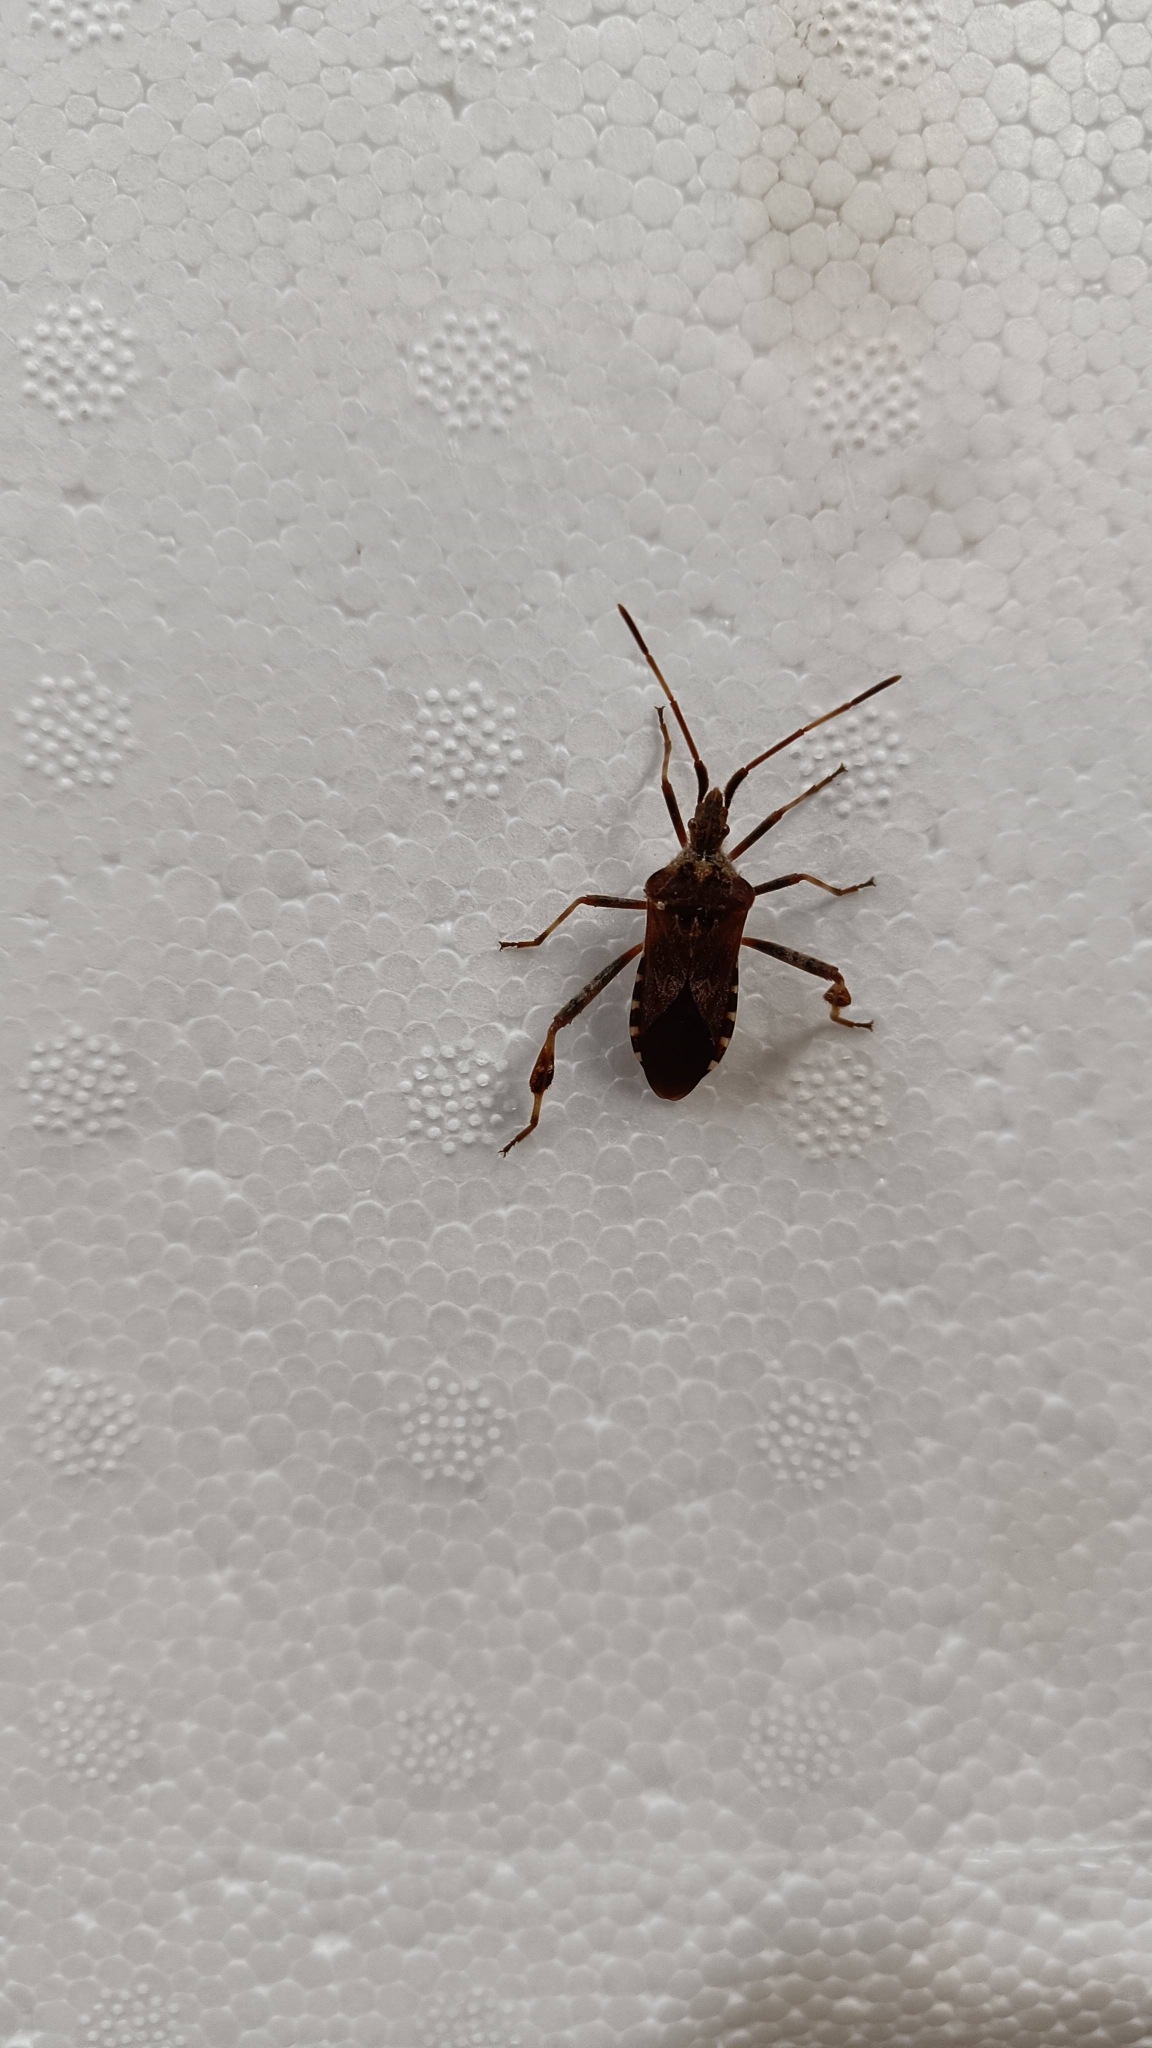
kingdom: Animalia
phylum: Arthropoda
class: Insecta
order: Hemiptera
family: Coreidae
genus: Leptoglossus
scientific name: Leptoglossus occidentalis
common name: Amerikansk fyrretæge
